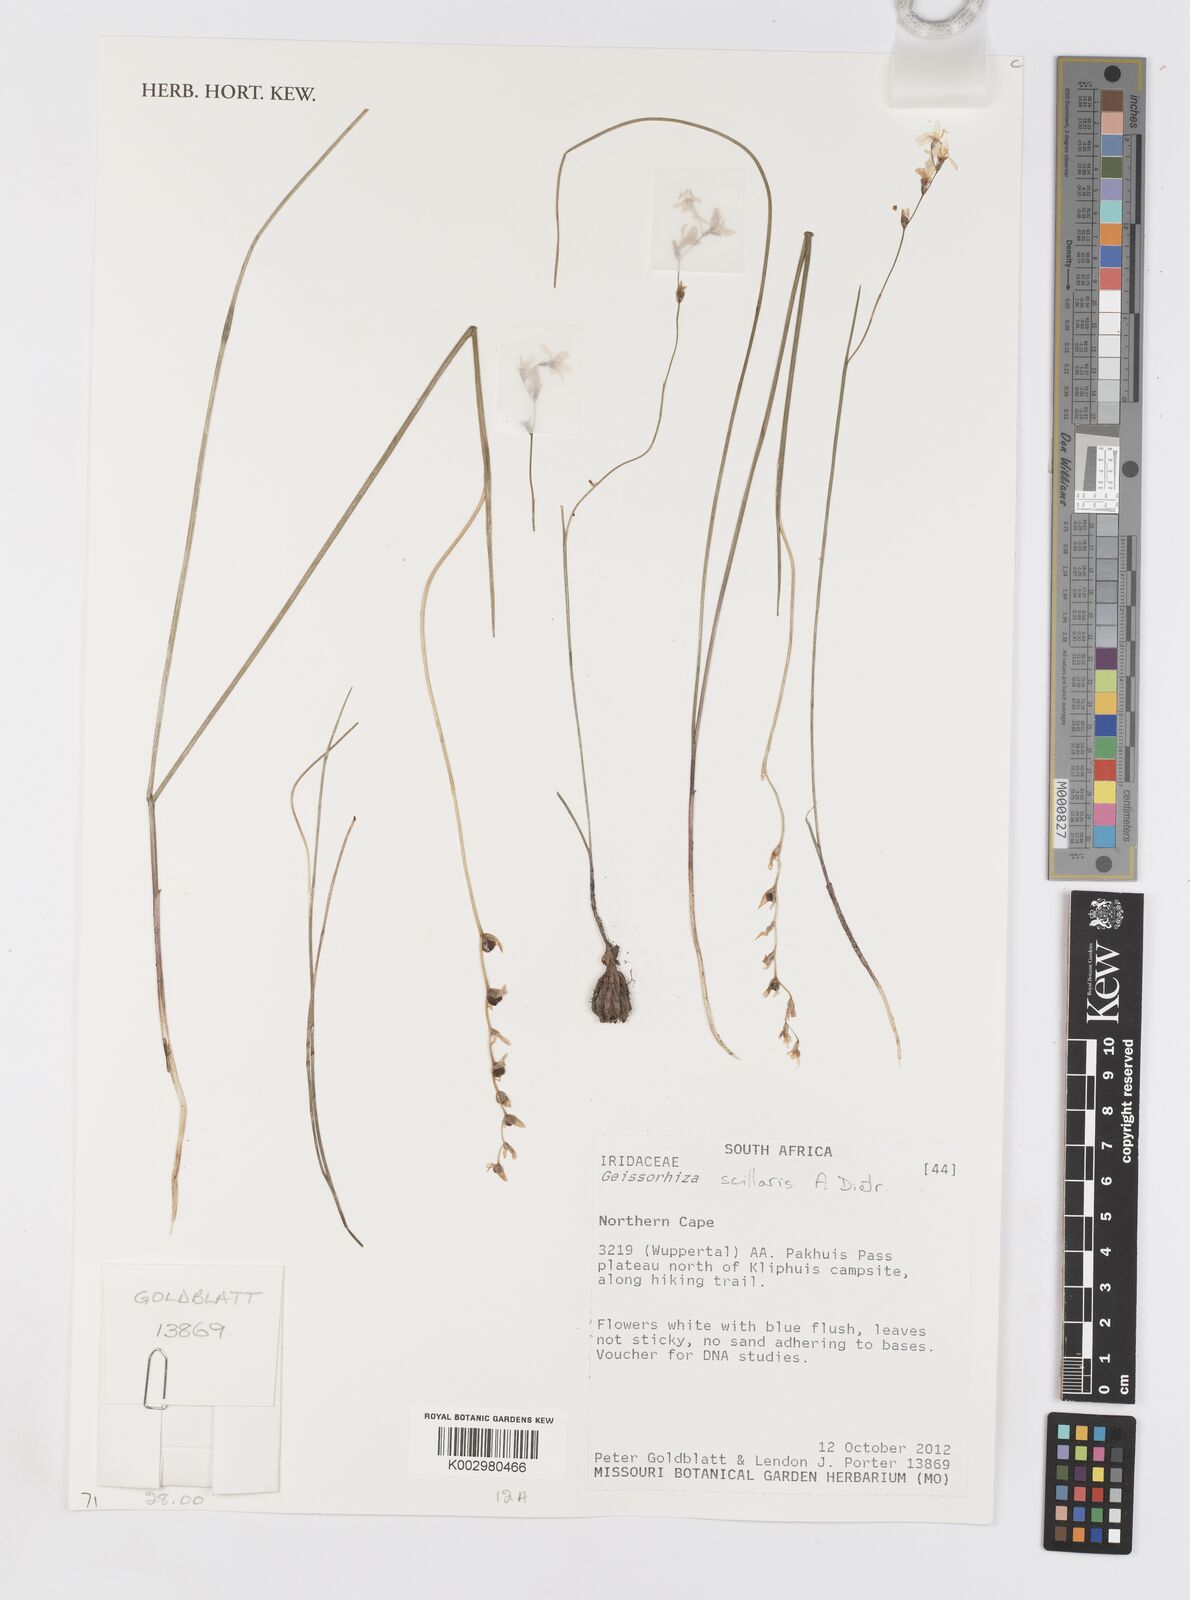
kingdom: Plantae
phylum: Tracheophyta
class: Liliopsida
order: Asparagales
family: Iridaceae
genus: Geissorhiza
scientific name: Geissorhiza scillaris
